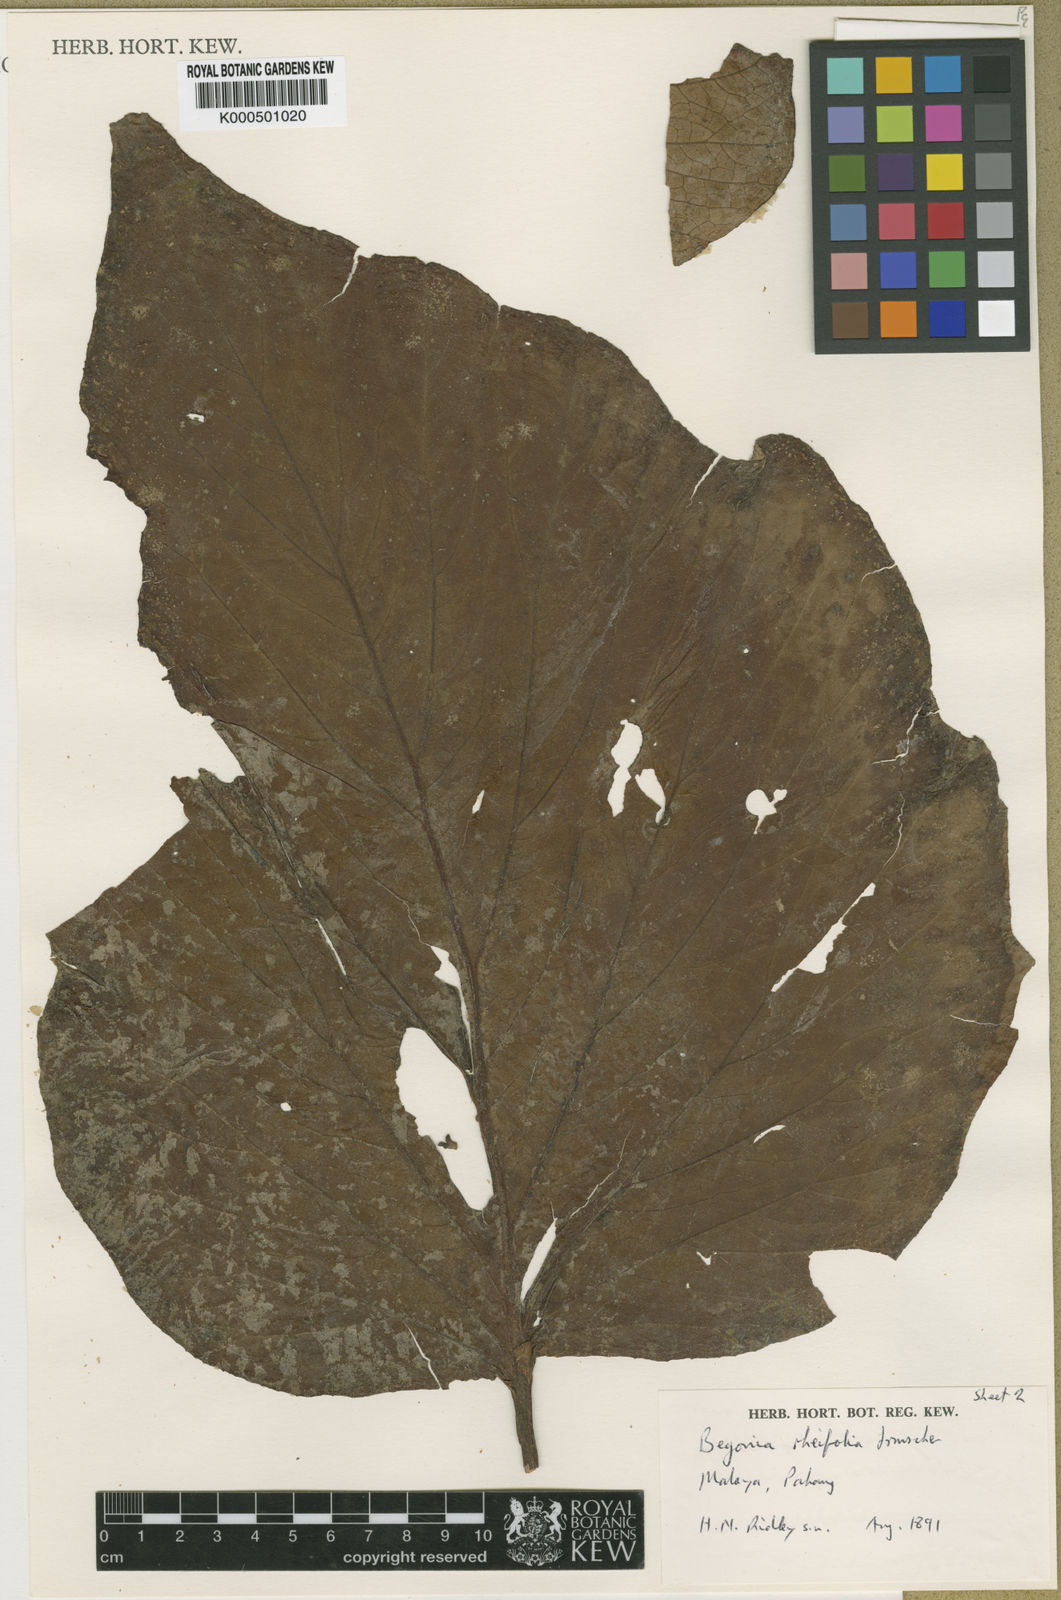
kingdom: Plantae
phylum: Tracheophyta
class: Magnoliopsida
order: Cucurbitales
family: Begoniaceae
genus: Begonia
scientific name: Begonia rheifolia
